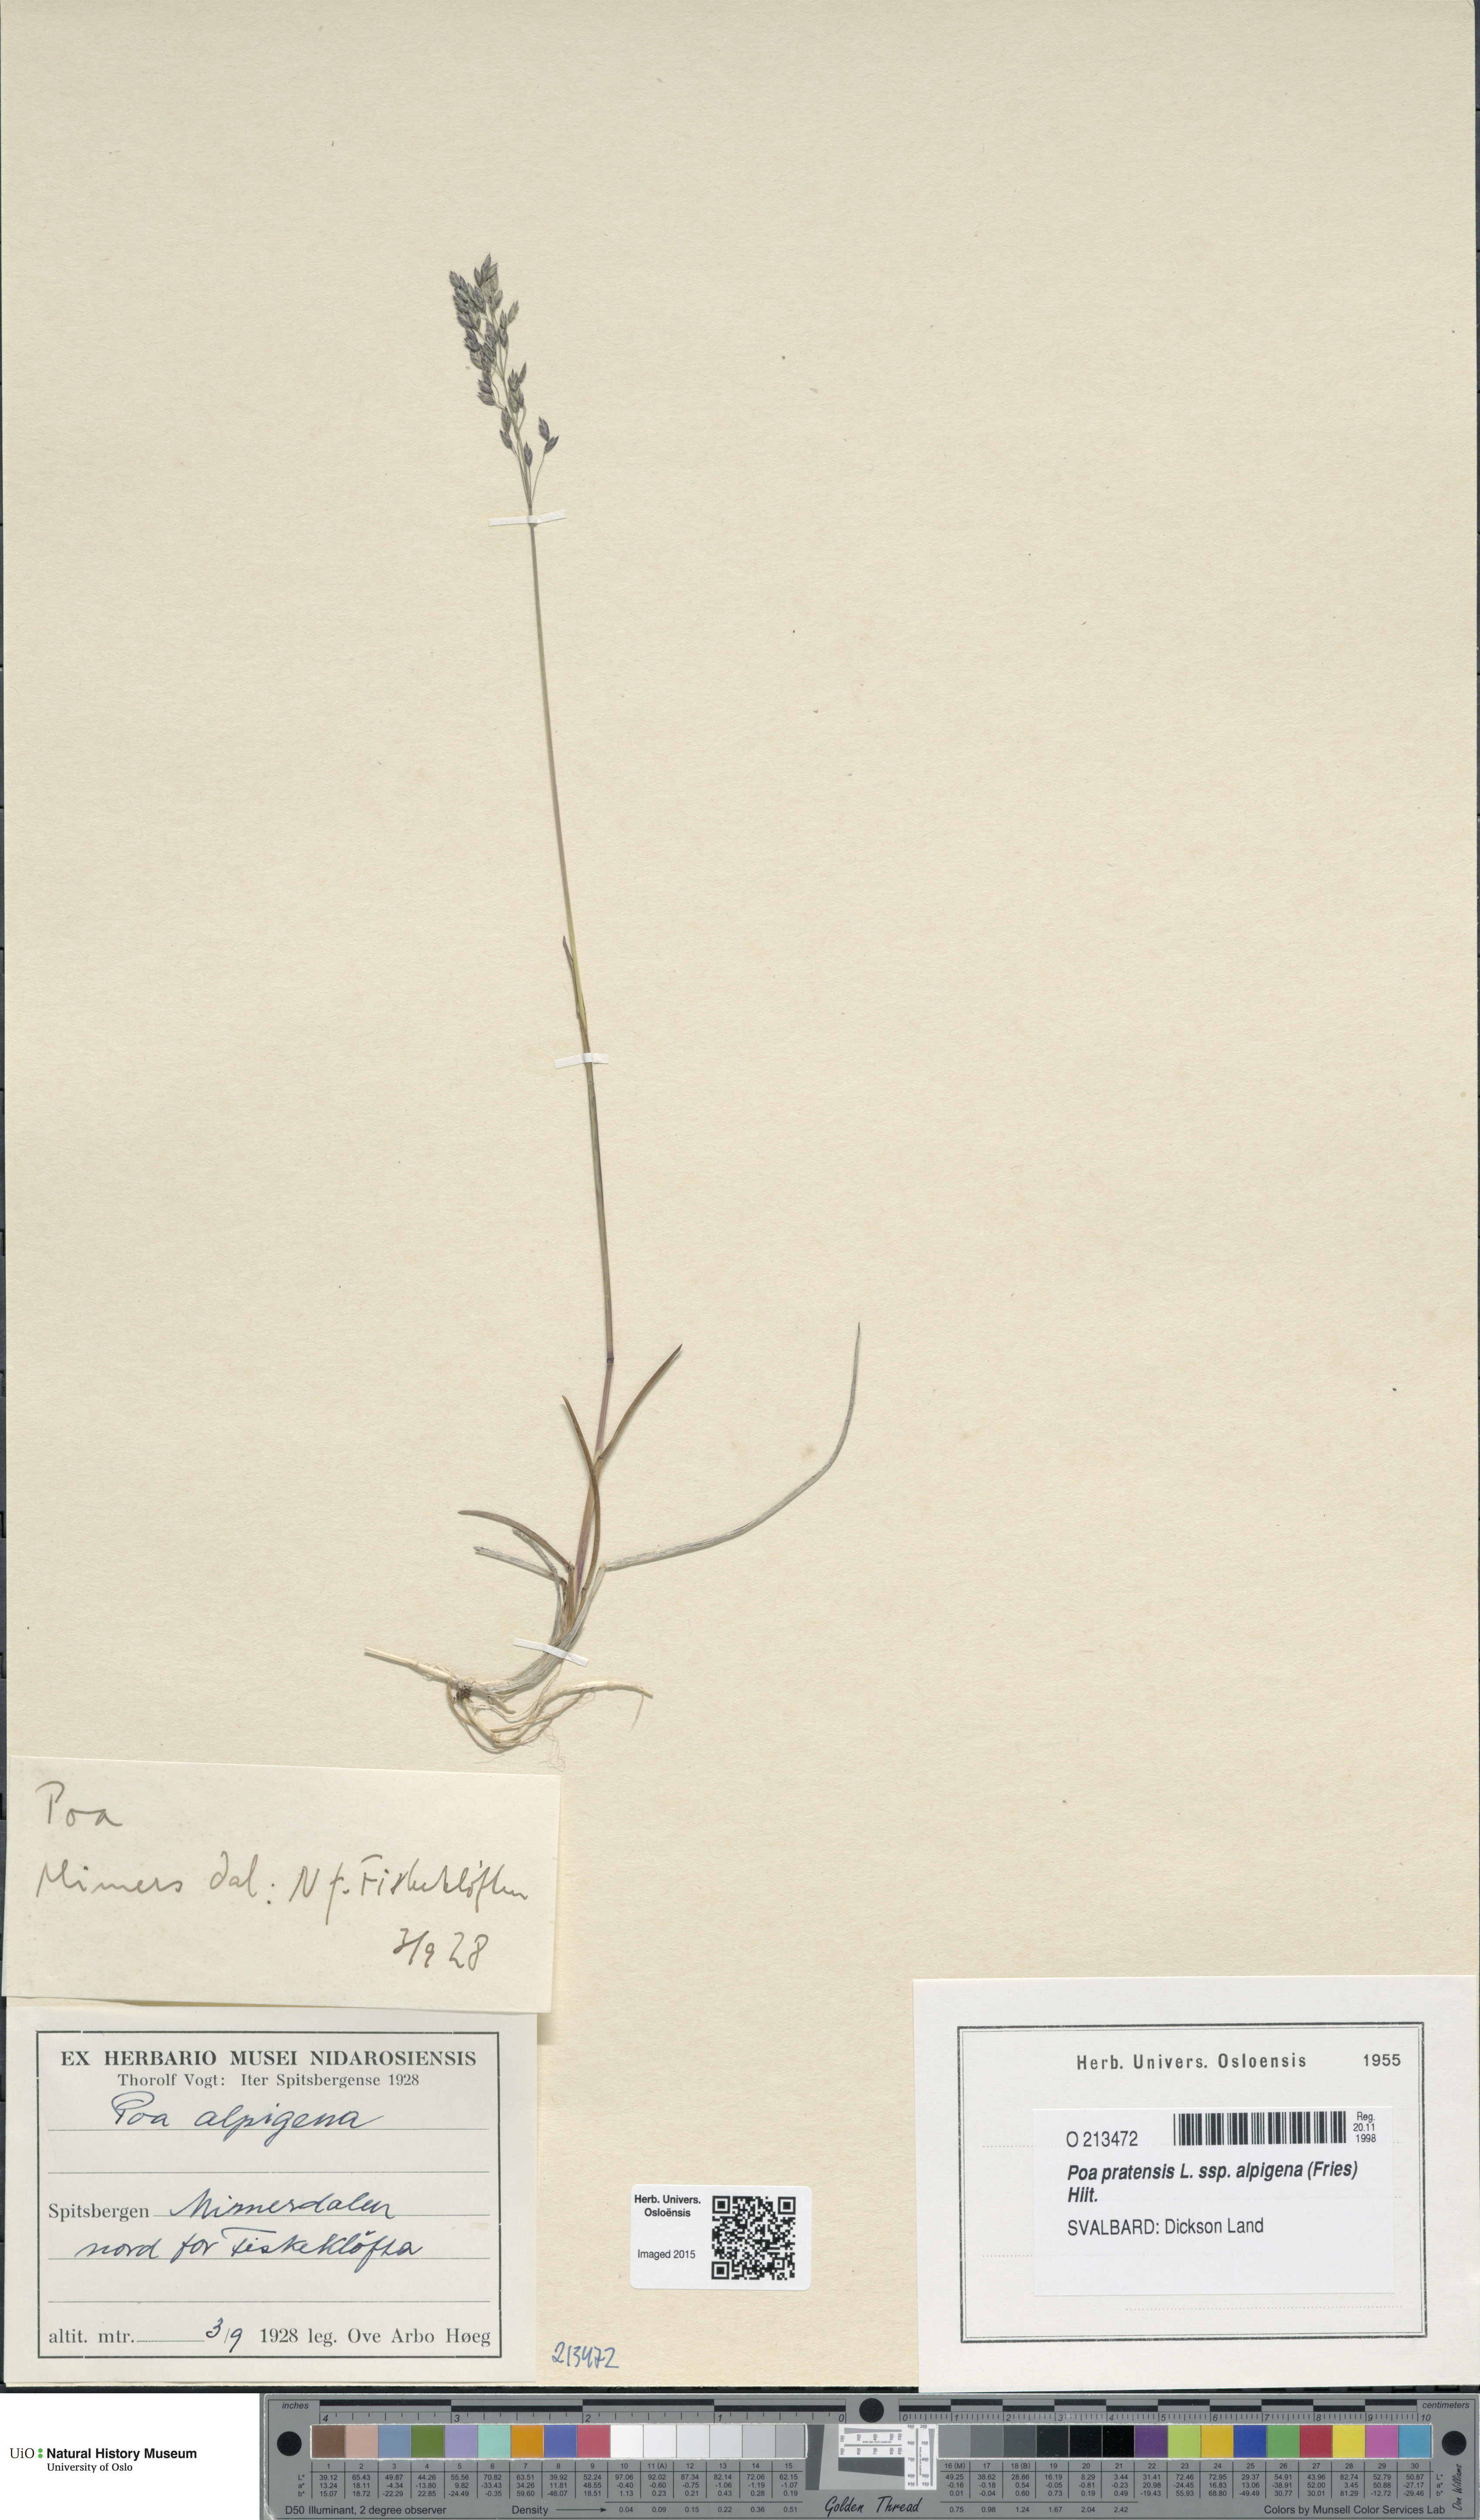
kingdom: Plantae
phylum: Tracheophyta
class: Liliopsida
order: Poales
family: Poaceae
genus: Poa
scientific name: Poa alpigena
